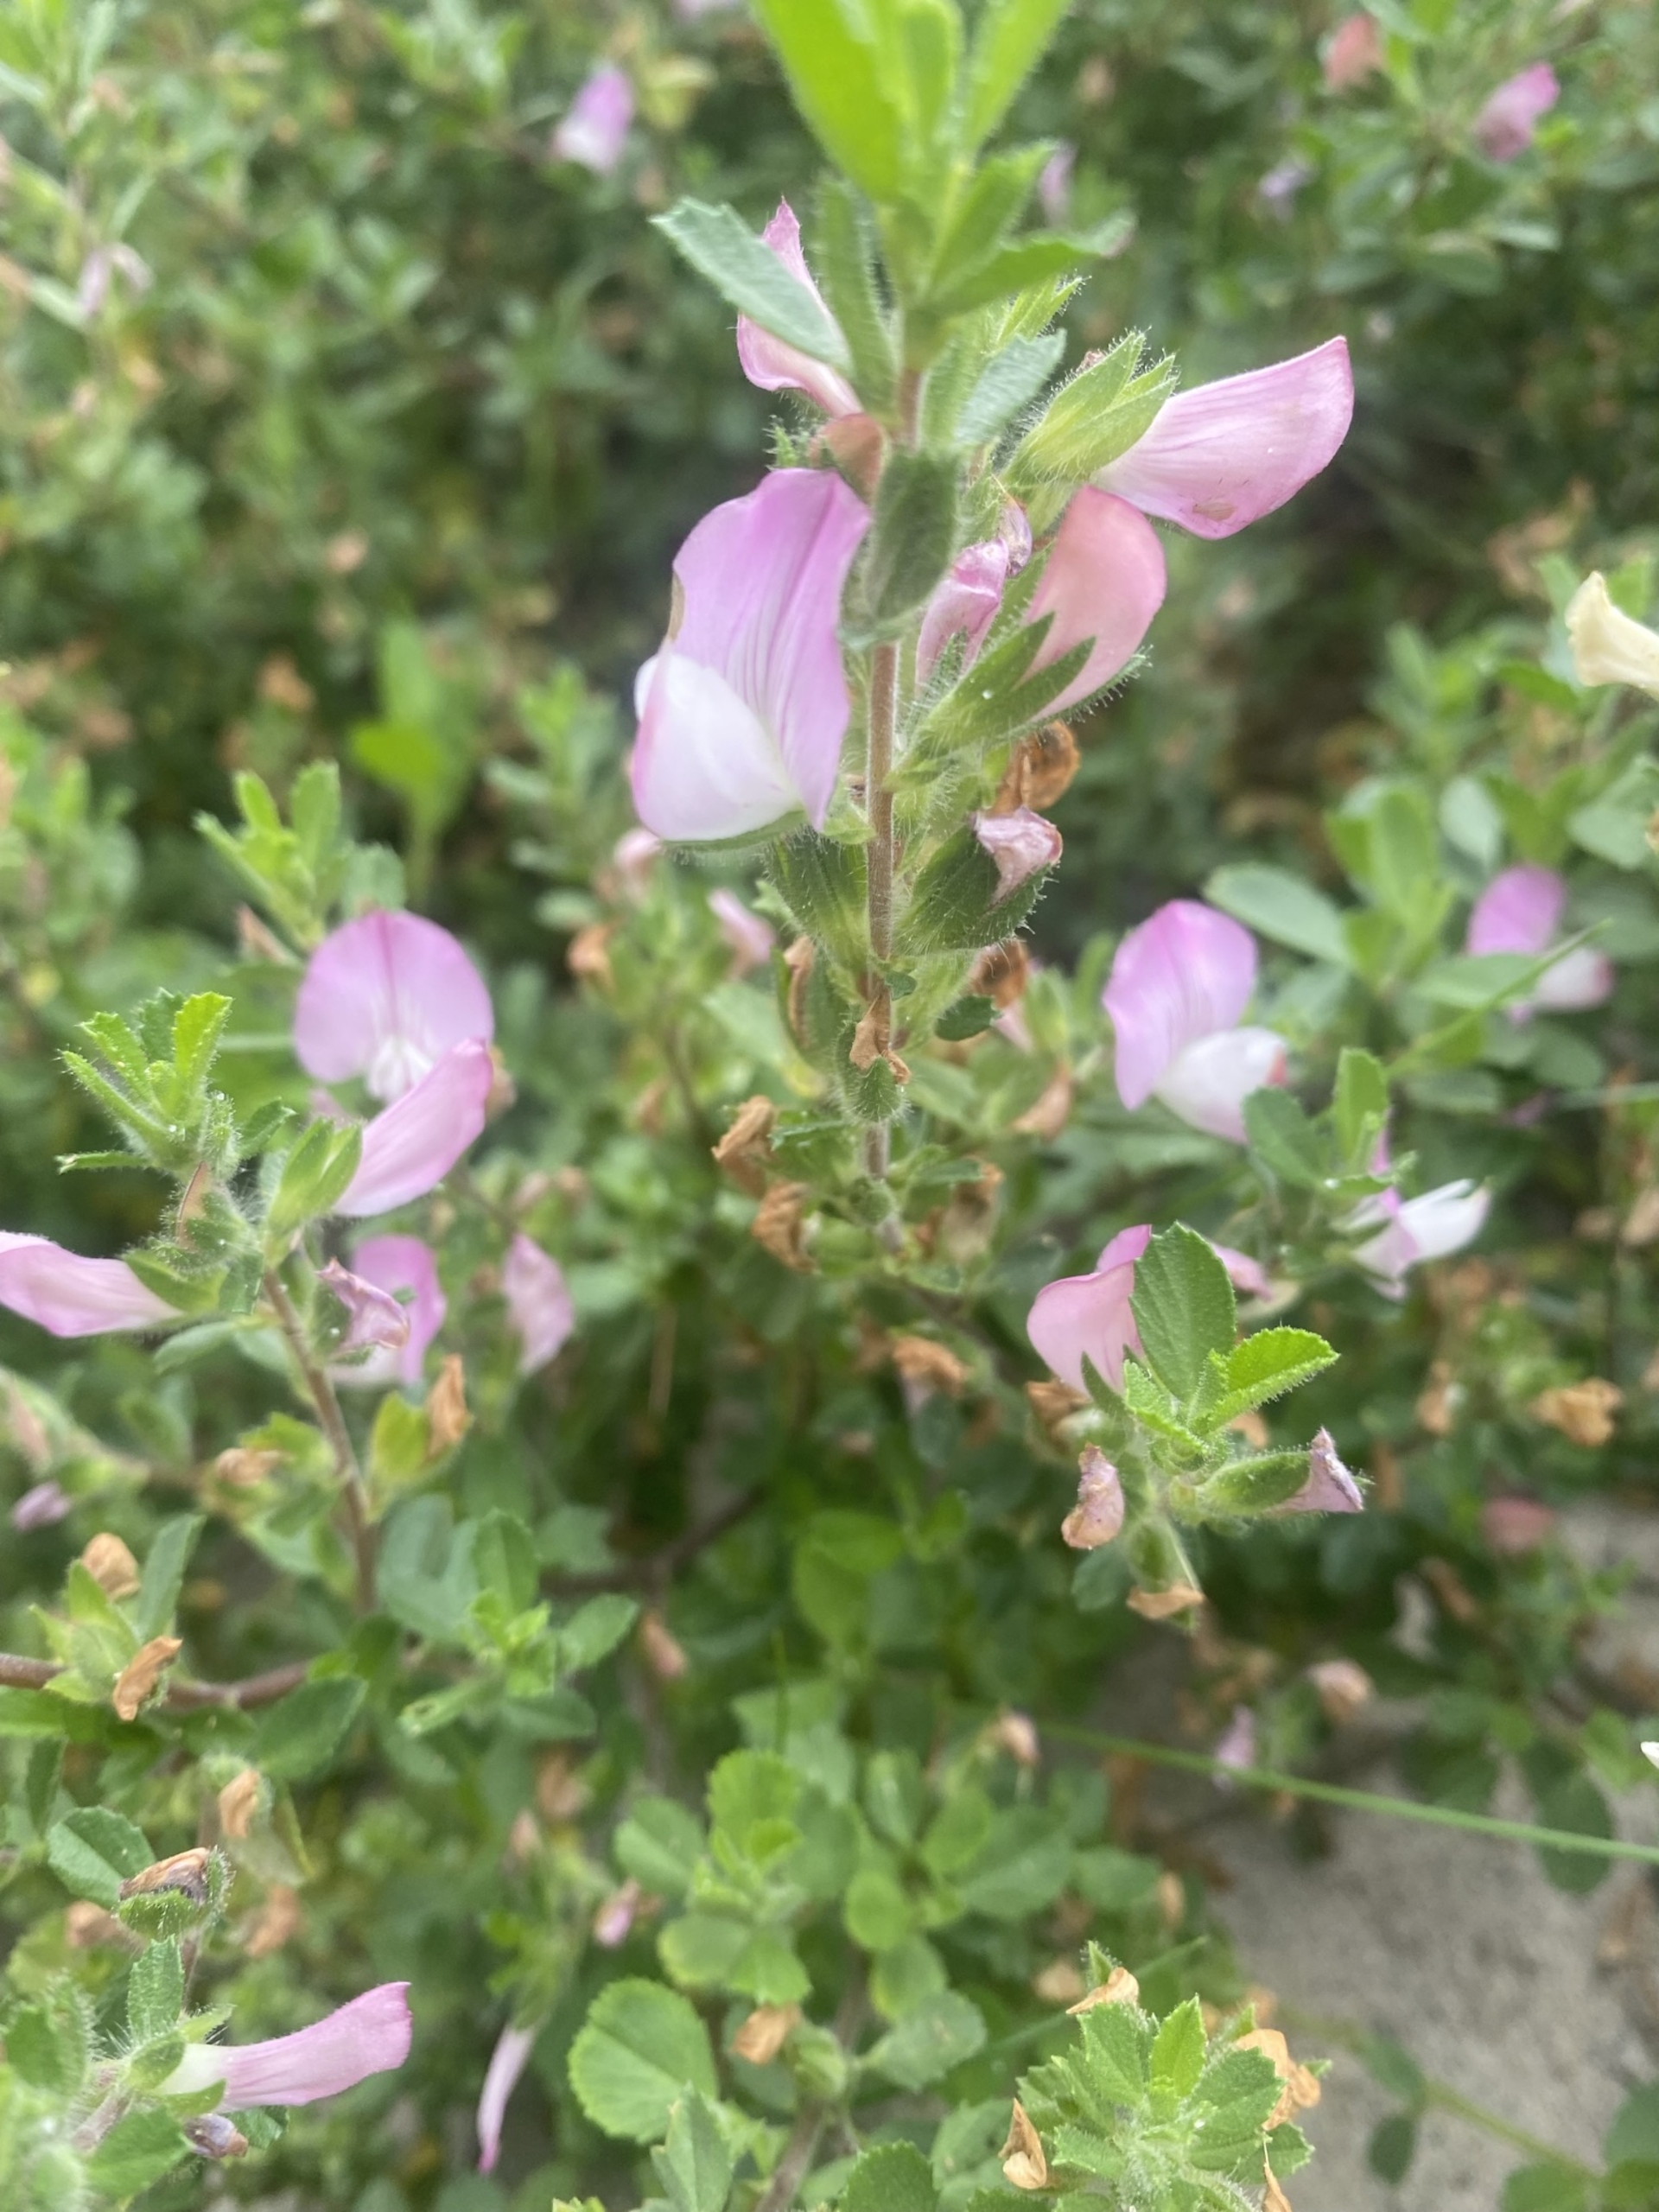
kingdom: Plantae
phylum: Tracheophyta
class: Magnoliopsida
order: Fabales
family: Fabaceae
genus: Ononis
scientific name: Ononis spinosa
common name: Mark-krageklo
